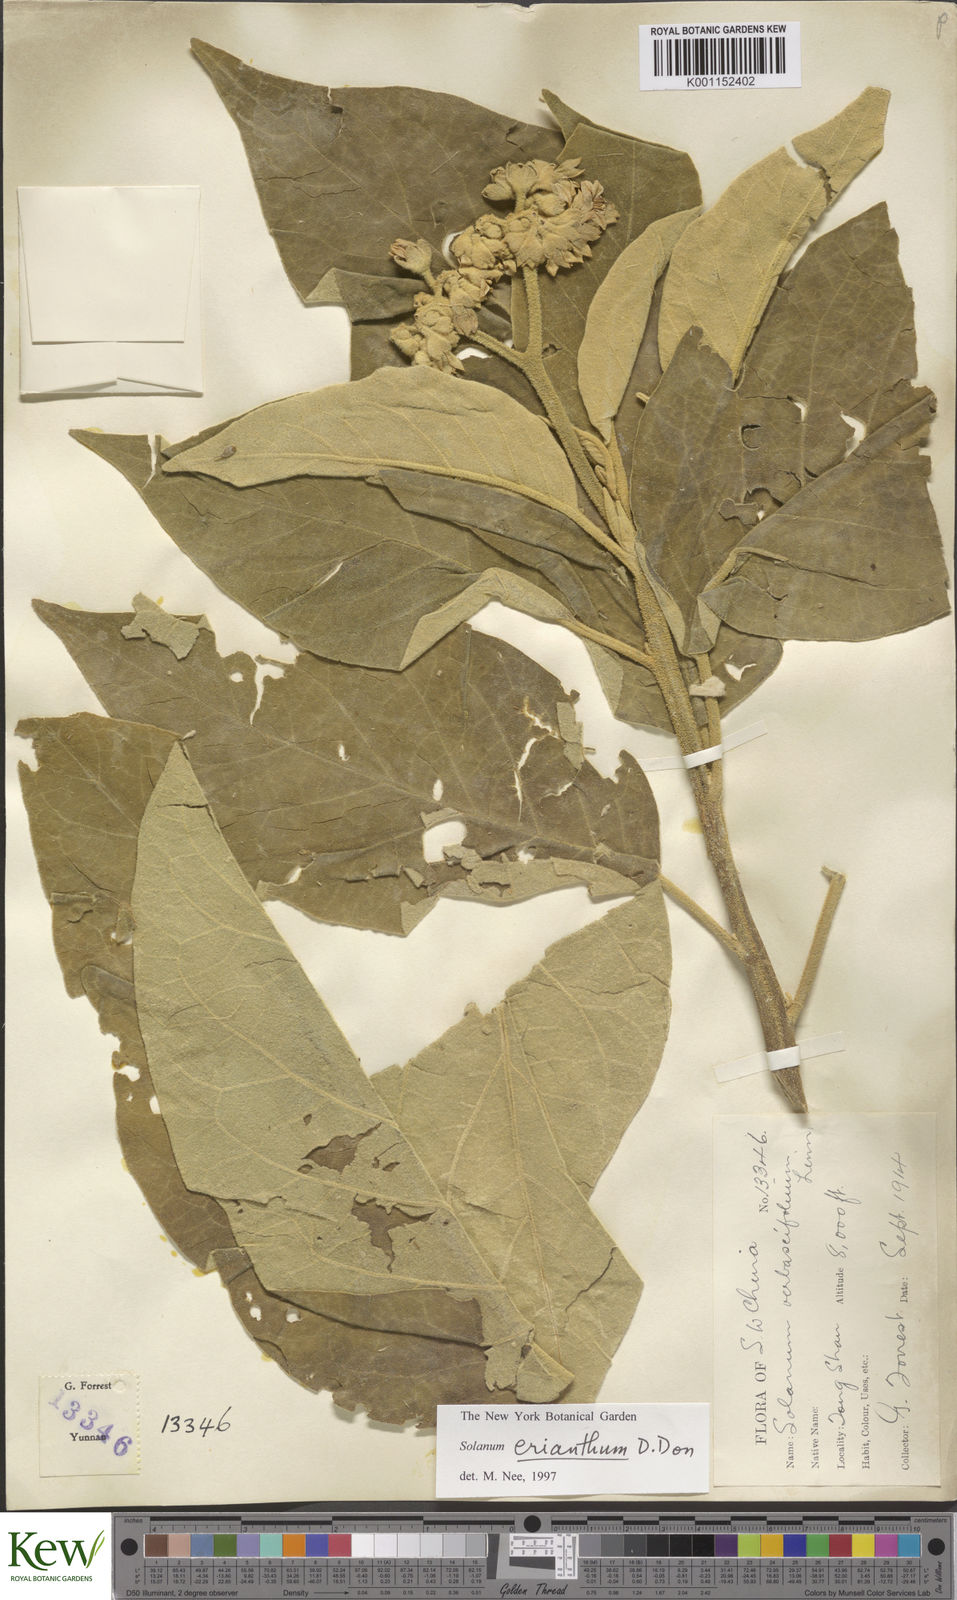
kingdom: Plantae
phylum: Tracheophyta
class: Magnoliopsida
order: Solanales
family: Solanaceae
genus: Solanum
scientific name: Solanum donianum
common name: Mullein nightshade
